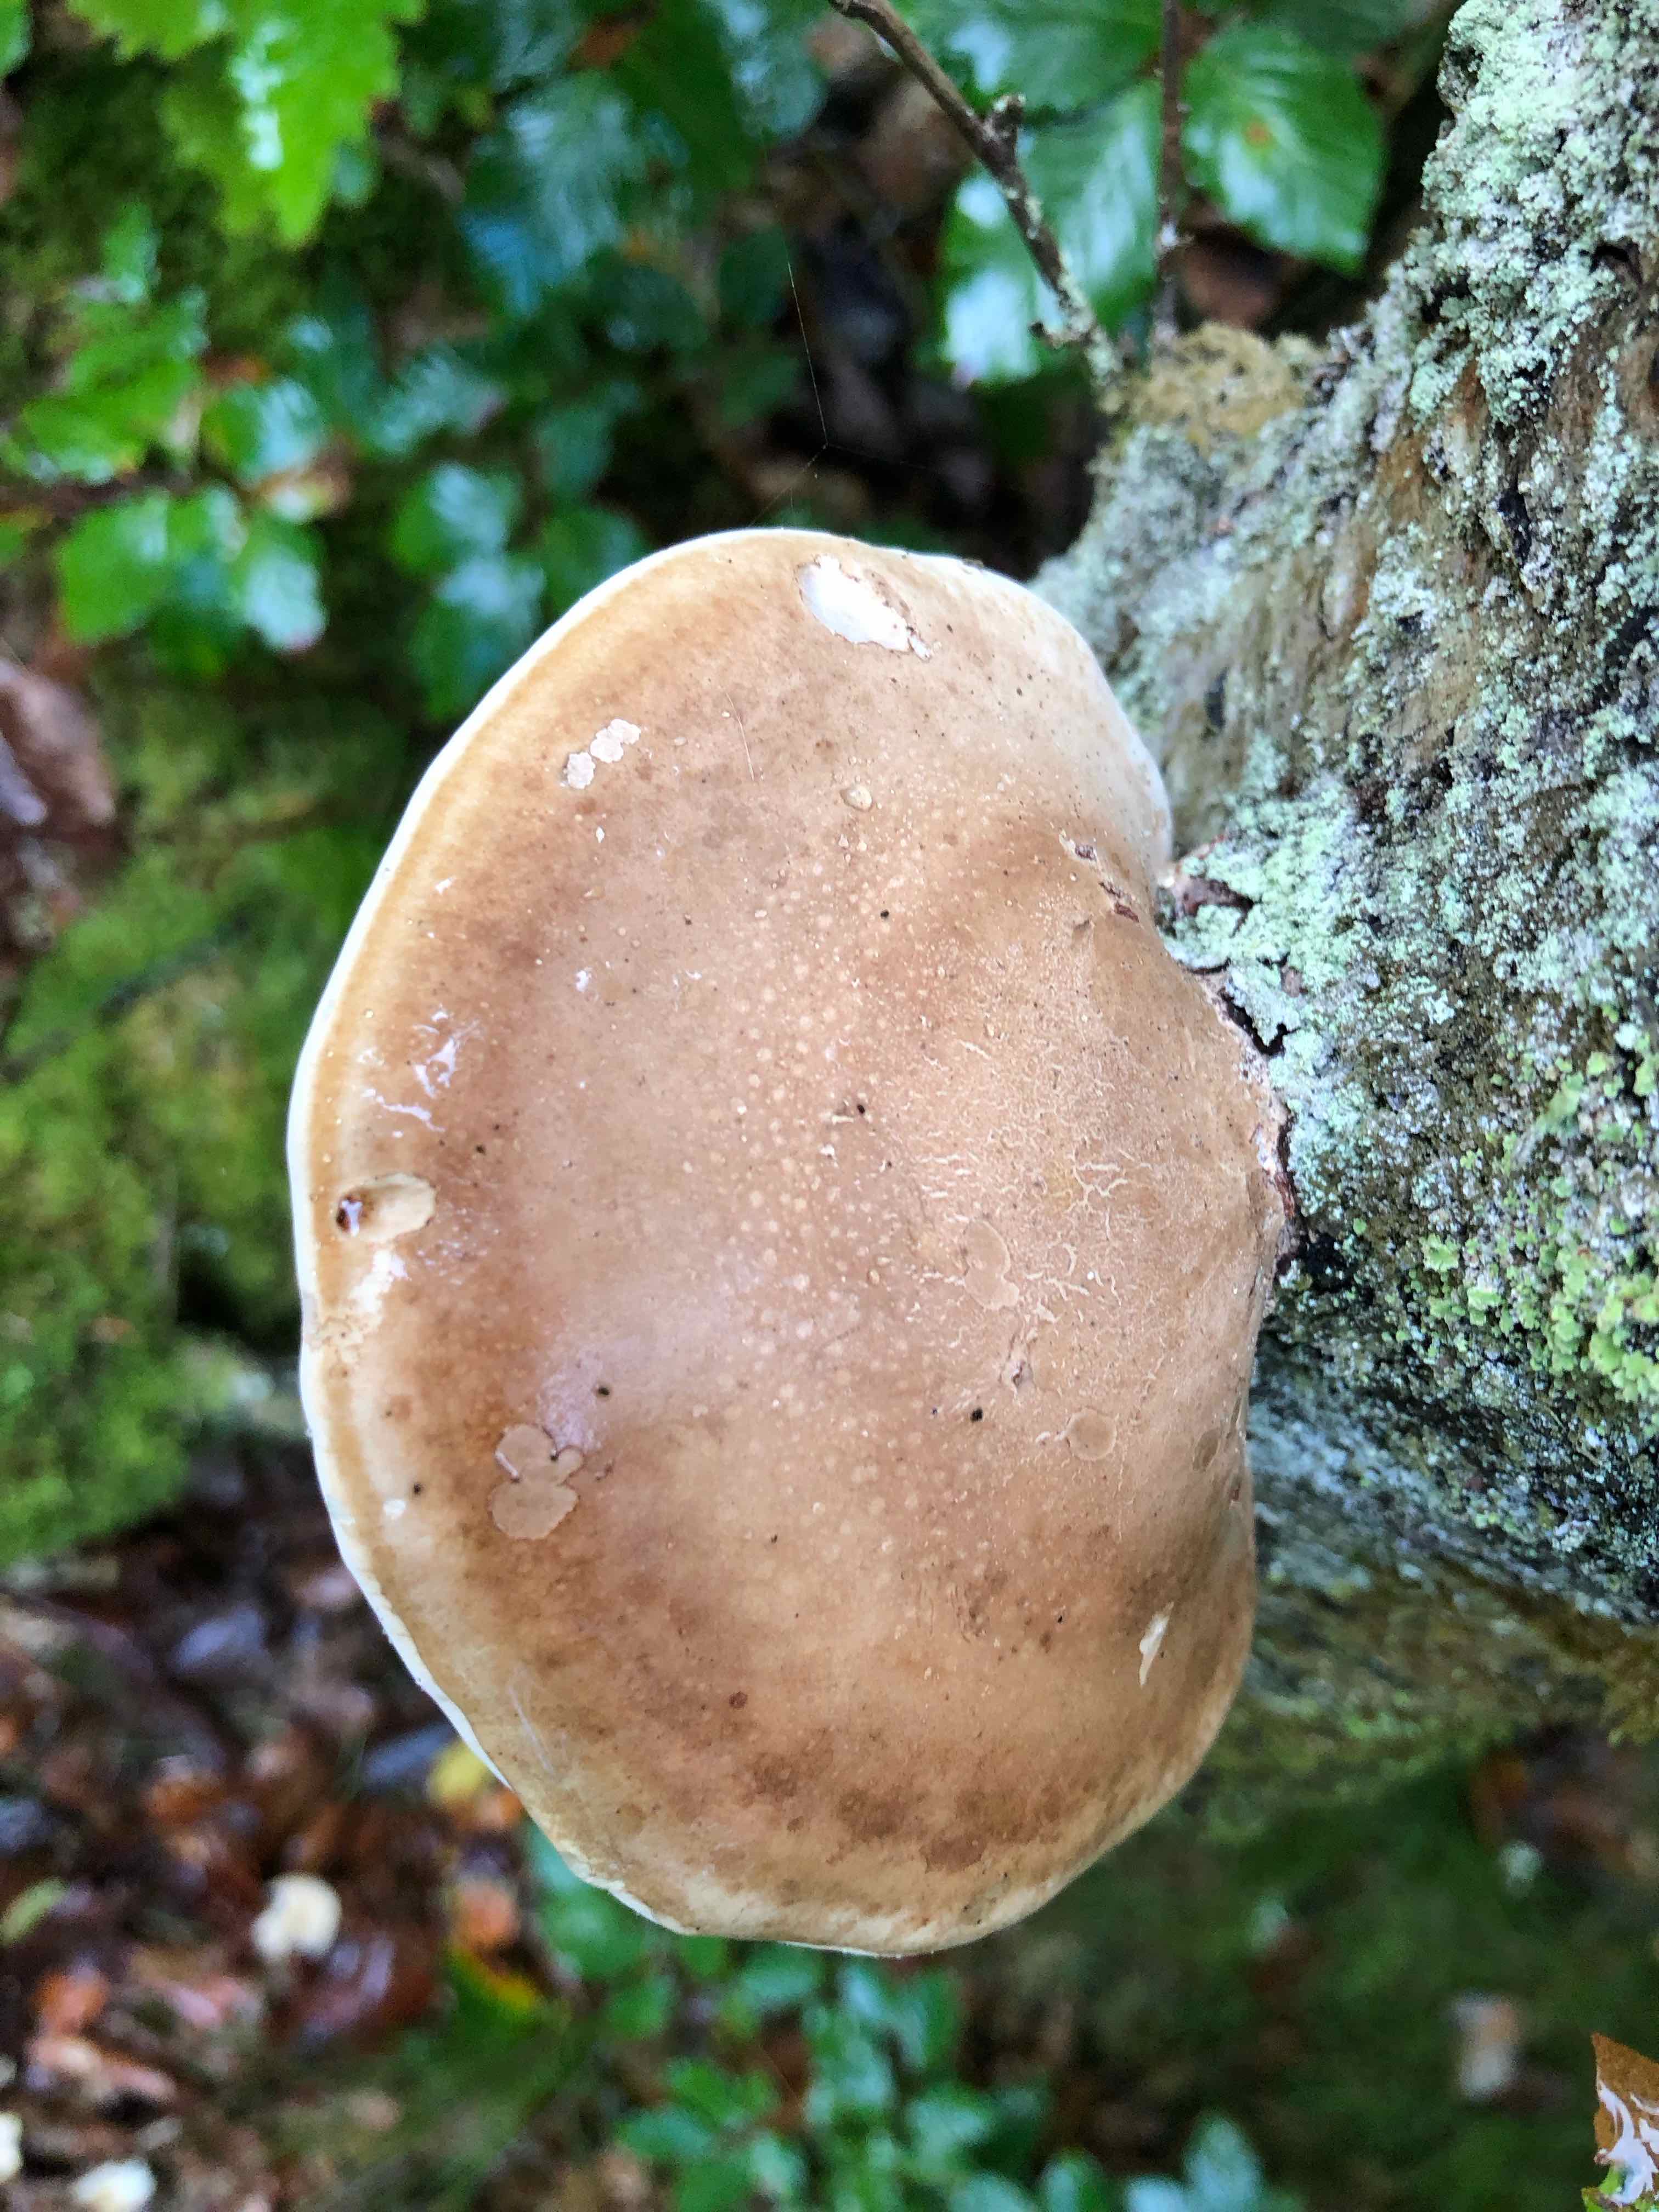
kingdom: Fungi
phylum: Basidiomycota
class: Agaricomycetes
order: Polyporales
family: Fomitopsidaceae
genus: Fomitopsis
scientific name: Fomitopsis betulina
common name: birkeporesvamp
